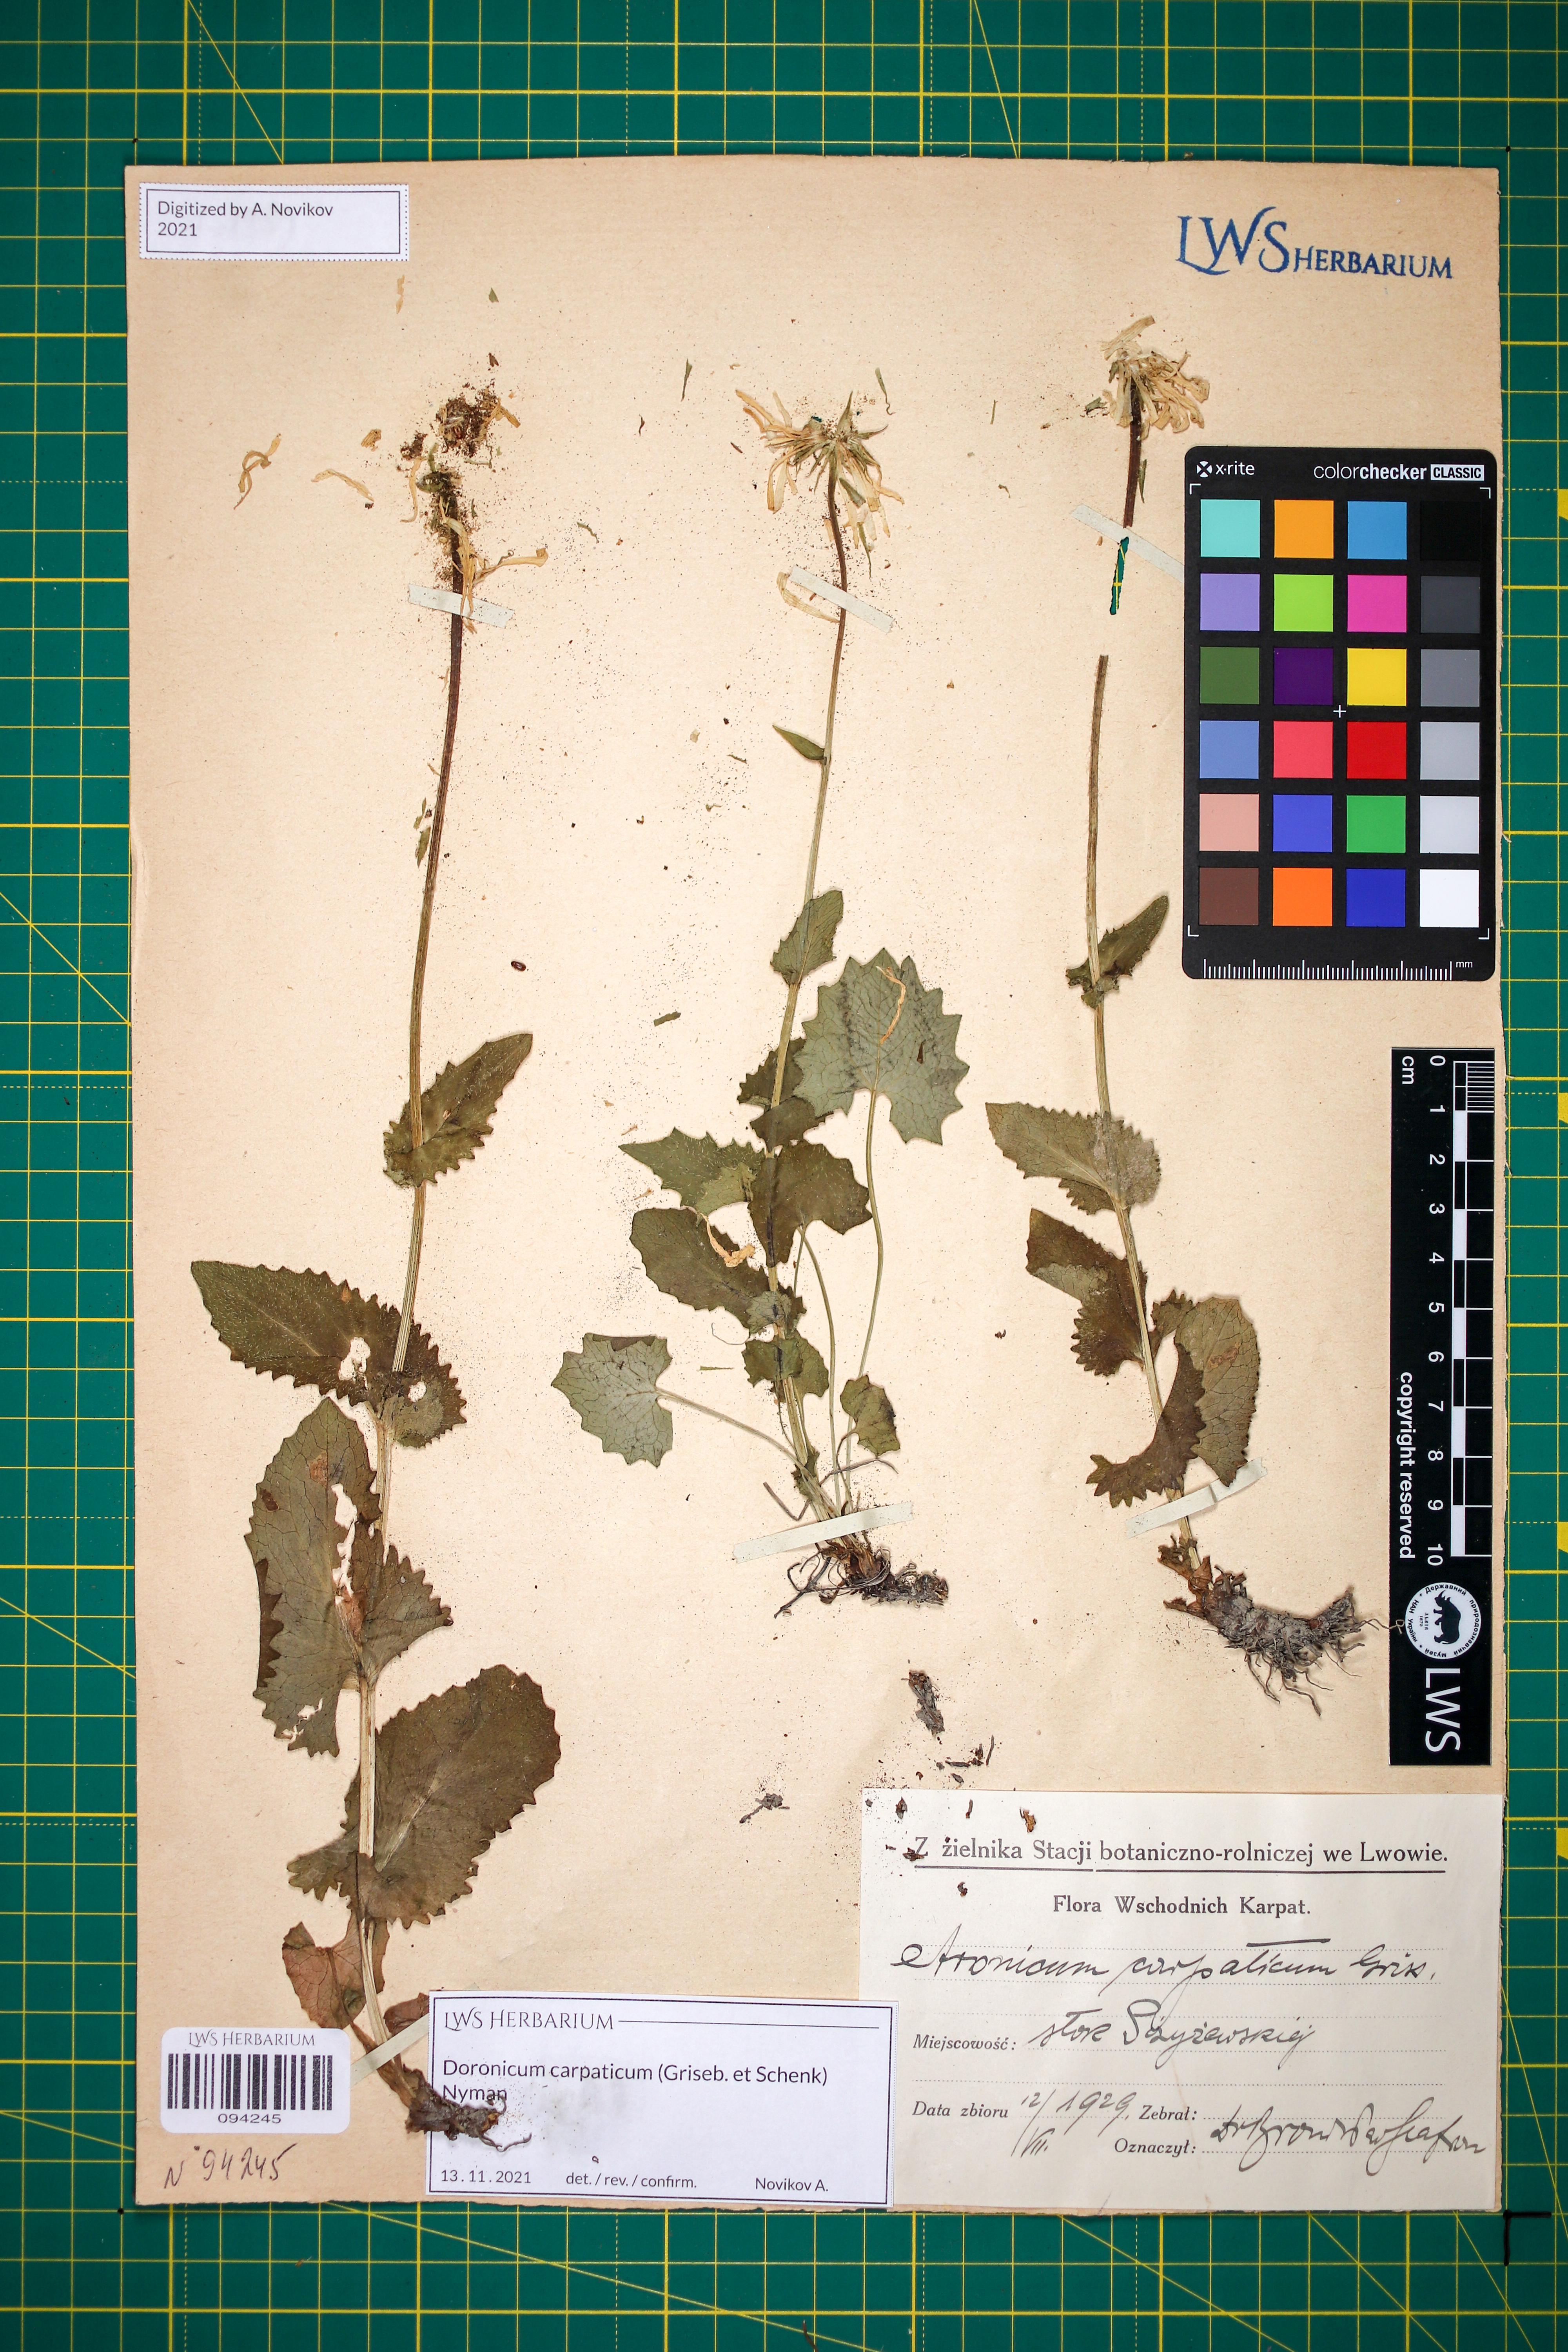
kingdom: Plantae
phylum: Tracheophyta
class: Magnoliopsida
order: Asterales
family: Asteraceae
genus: Doronicum
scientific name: Doronicum carpaticum
